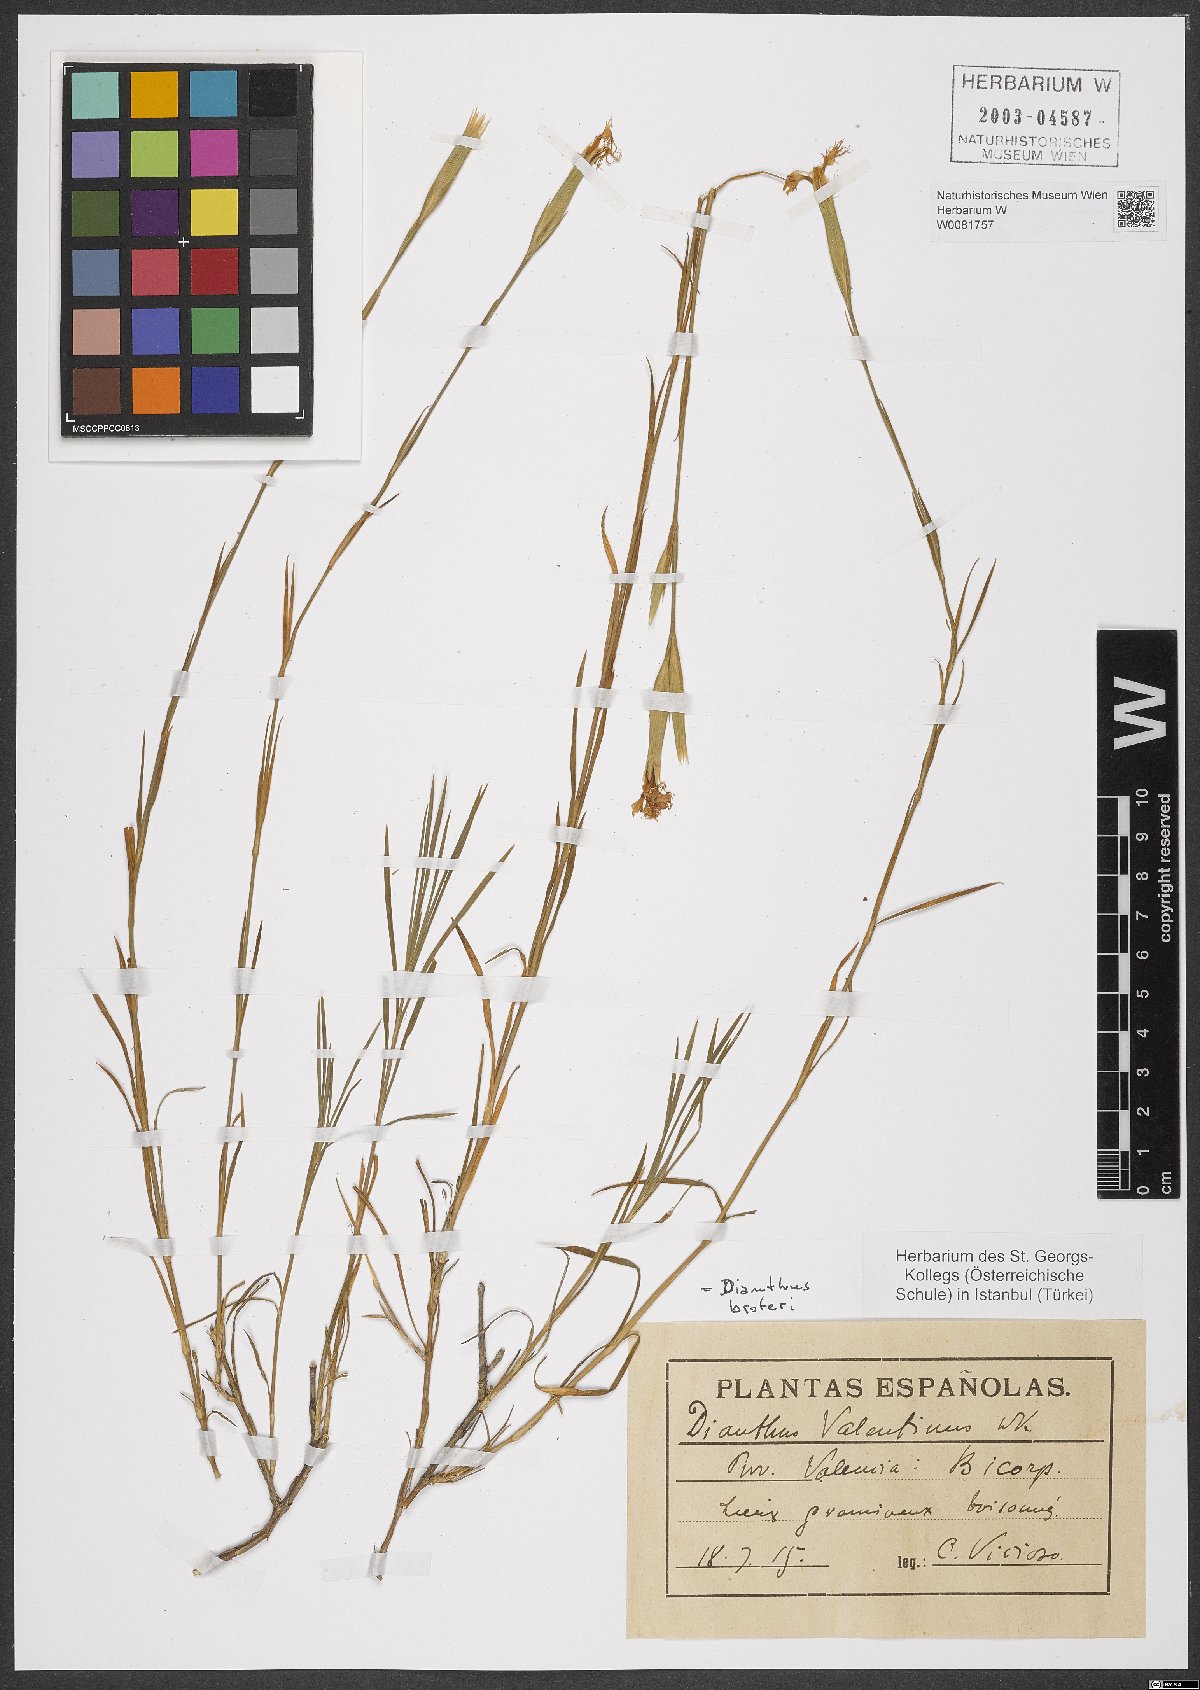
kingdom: Plantae
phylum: Tracheophyta
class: Magnoliopsida
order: Caryophyllales
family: Caryophyllaceae
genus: Dianthus
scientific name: Dianthus broteri
